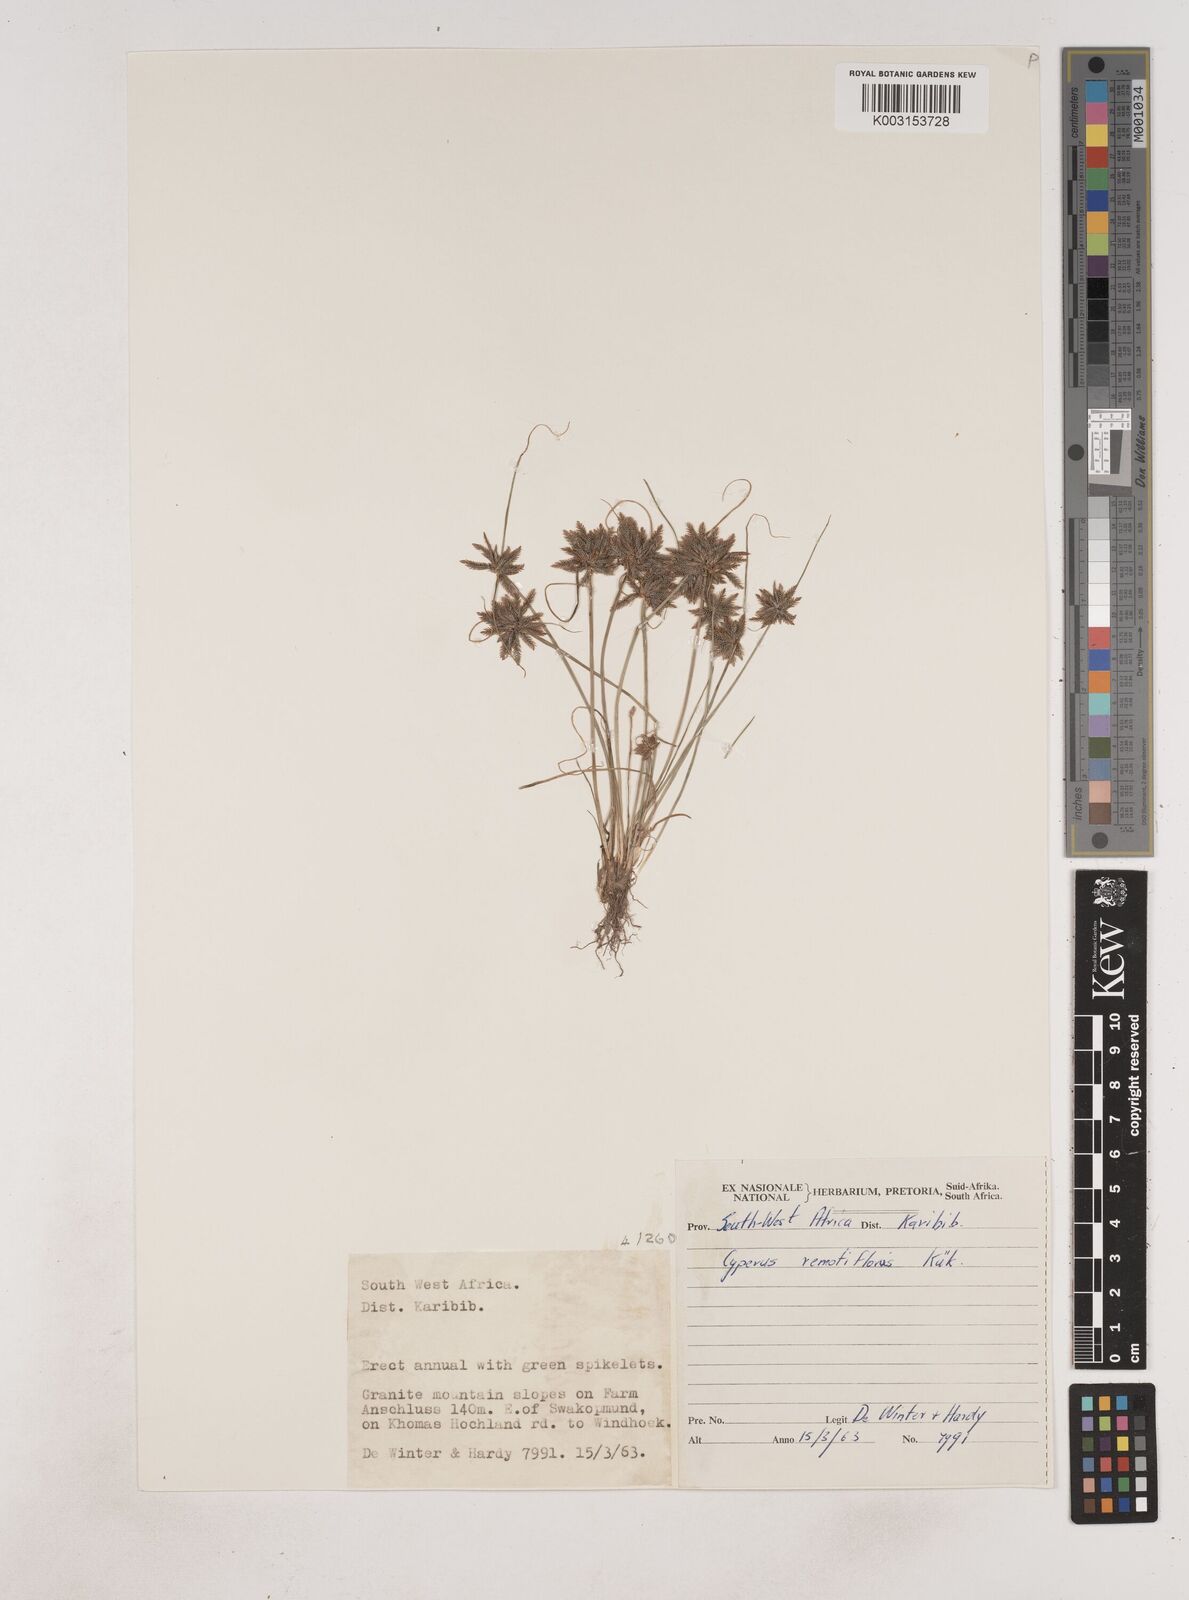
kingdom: Plantae
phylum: Tracheophyta
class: Liliopsida
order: Poales
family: Cyperaceae
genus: Cyperus
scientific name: Cyperus remotiflorus
